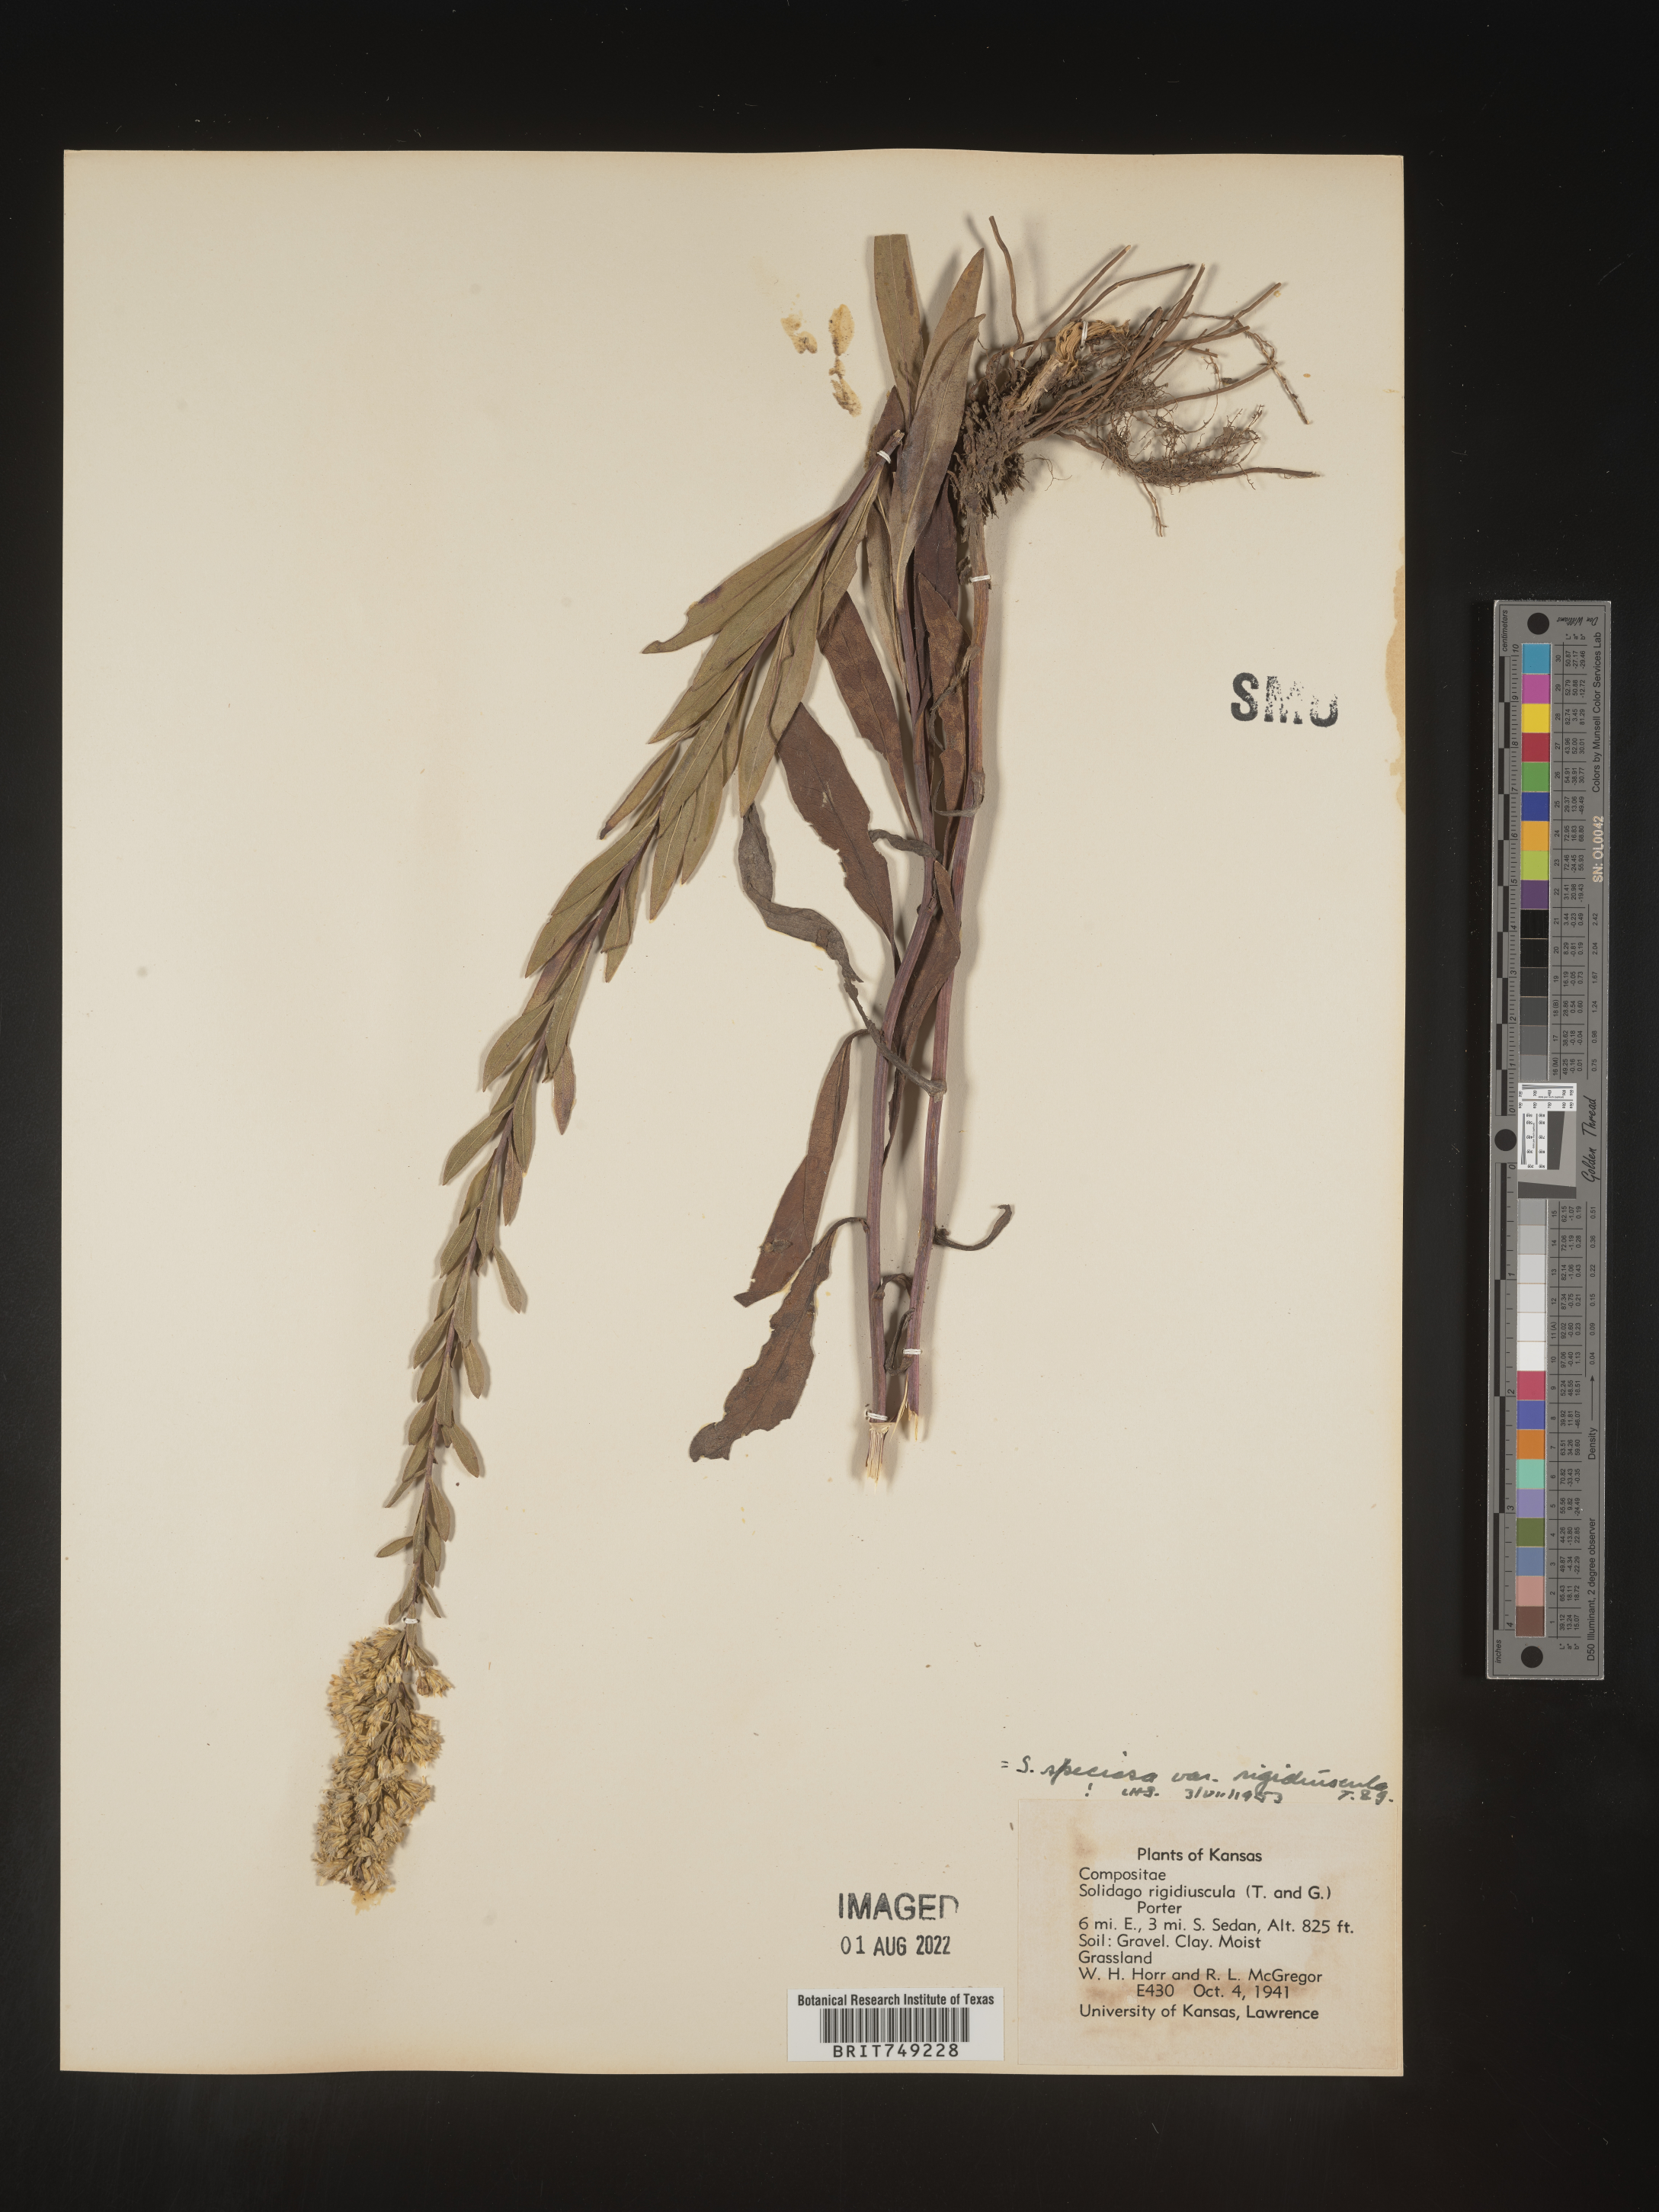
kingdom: Plantae
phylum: Tracheophyta
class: Magnoliopsida
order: Asterales
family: Asteraceae
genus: Solidago
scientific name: Solidago speciosa
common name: Showy goldenrod
